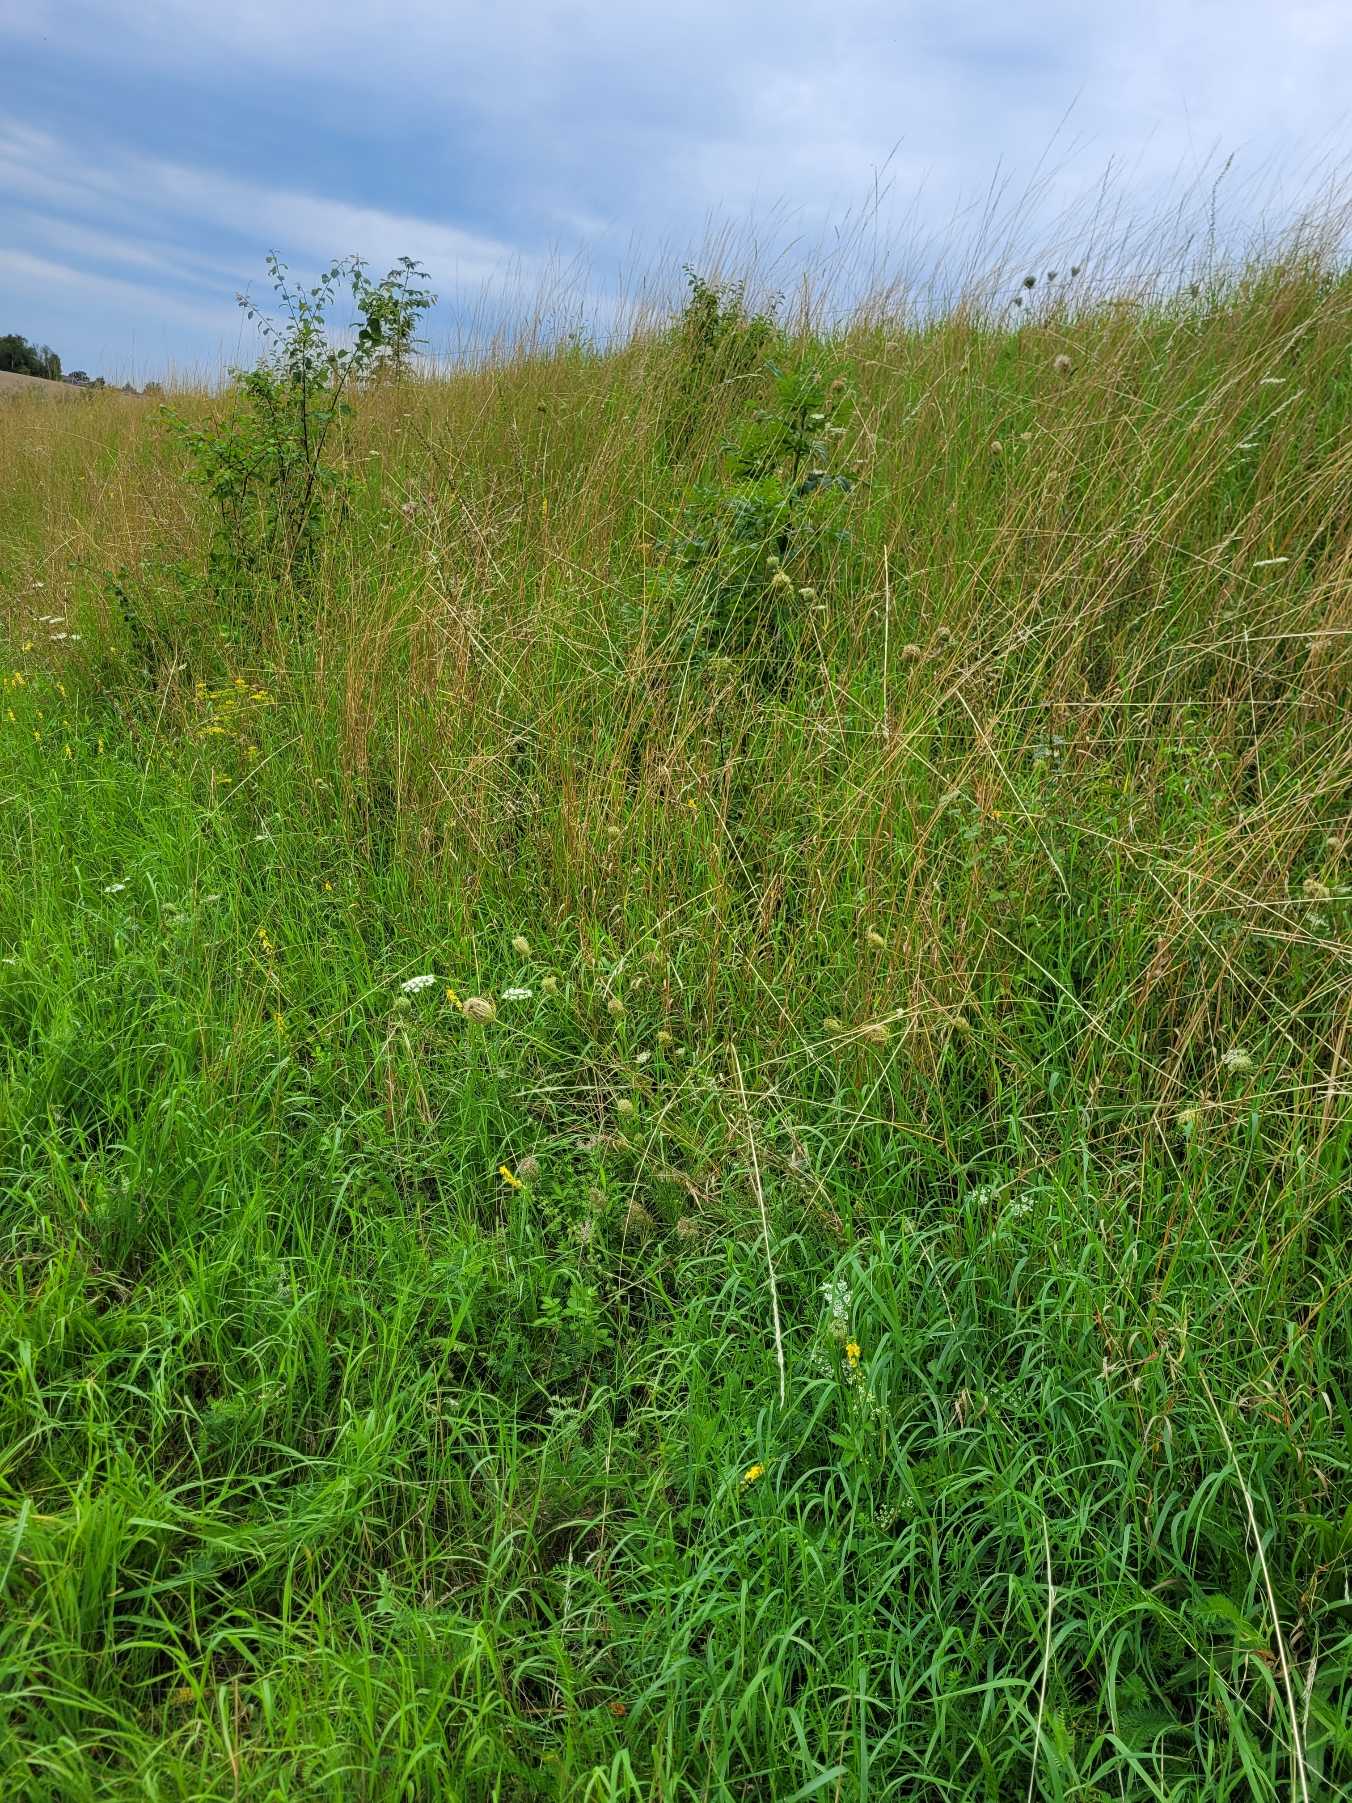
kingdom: Animalia
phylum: Chordata
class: Squamata
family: Lacertidae
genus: Lacerta
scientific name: Lacerta agilis
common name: Markfirben
